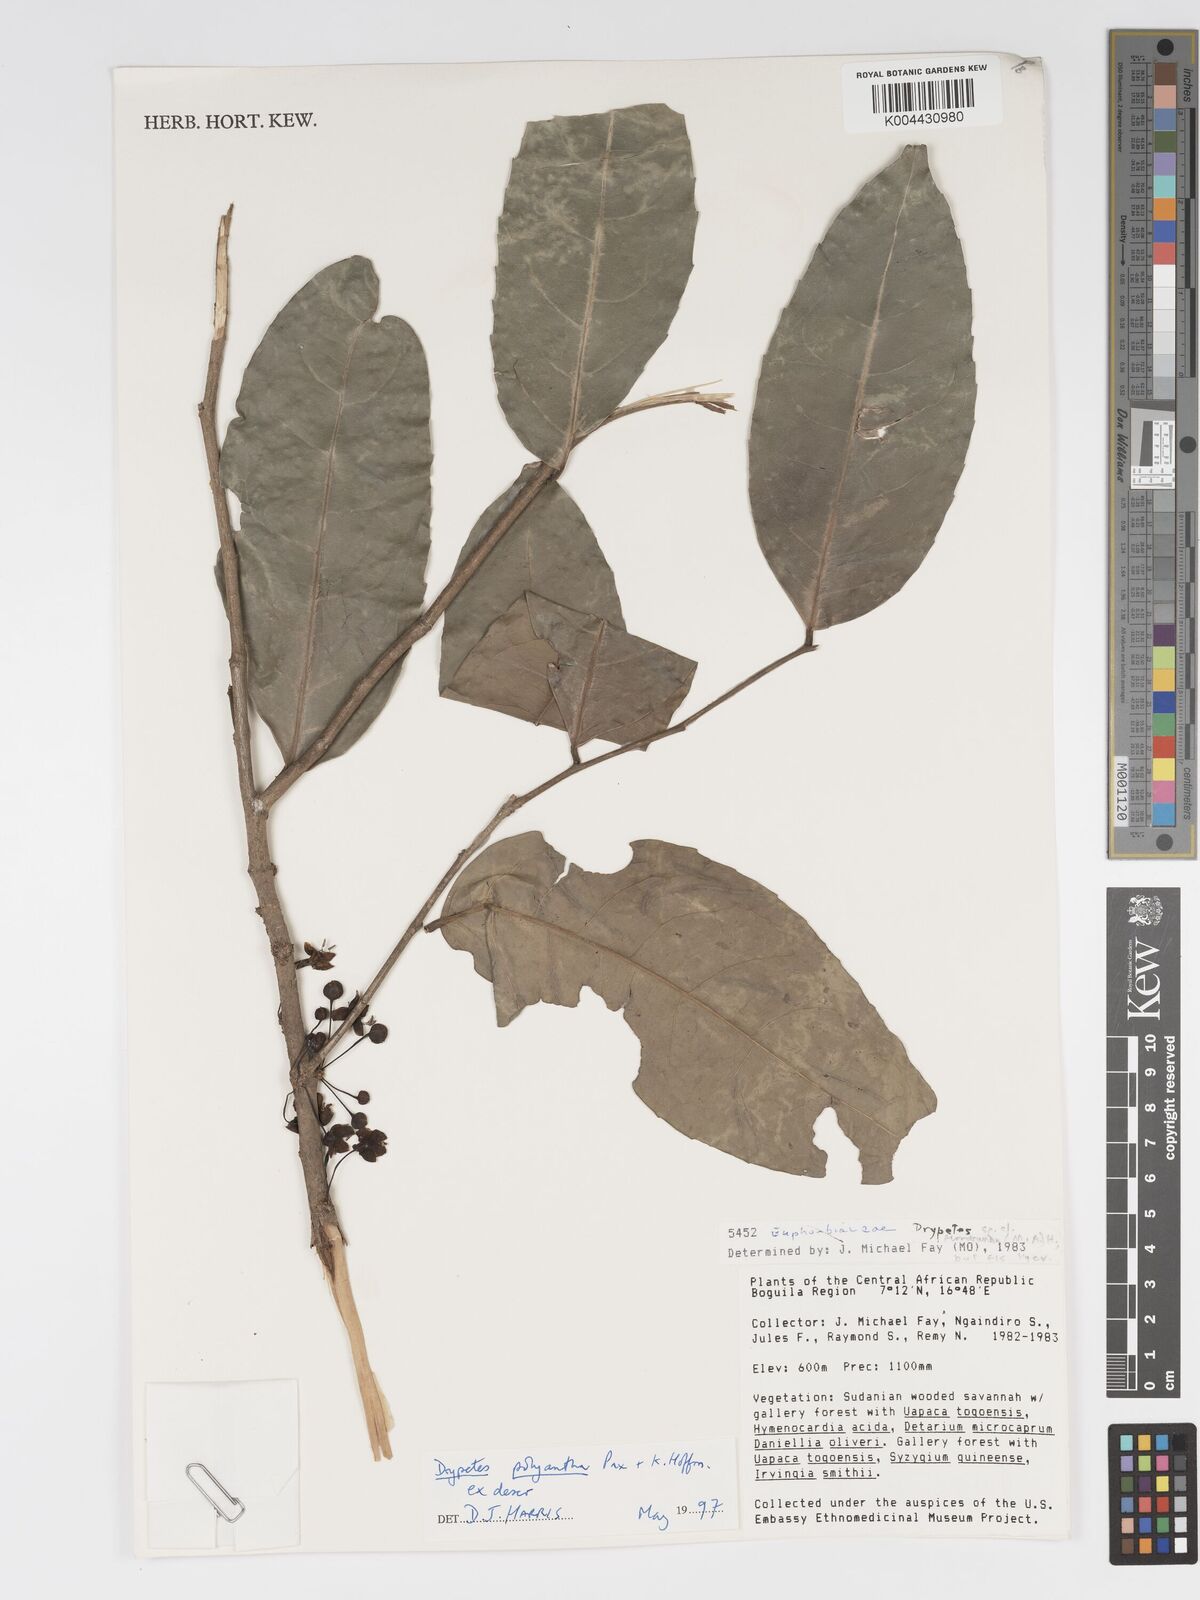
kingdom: Plantae
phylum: Tracheophyta
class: Magnoliopsida
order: Malpighiales
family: Putranjivaceae
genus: Drypetes
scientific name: Drypetes polyantha
